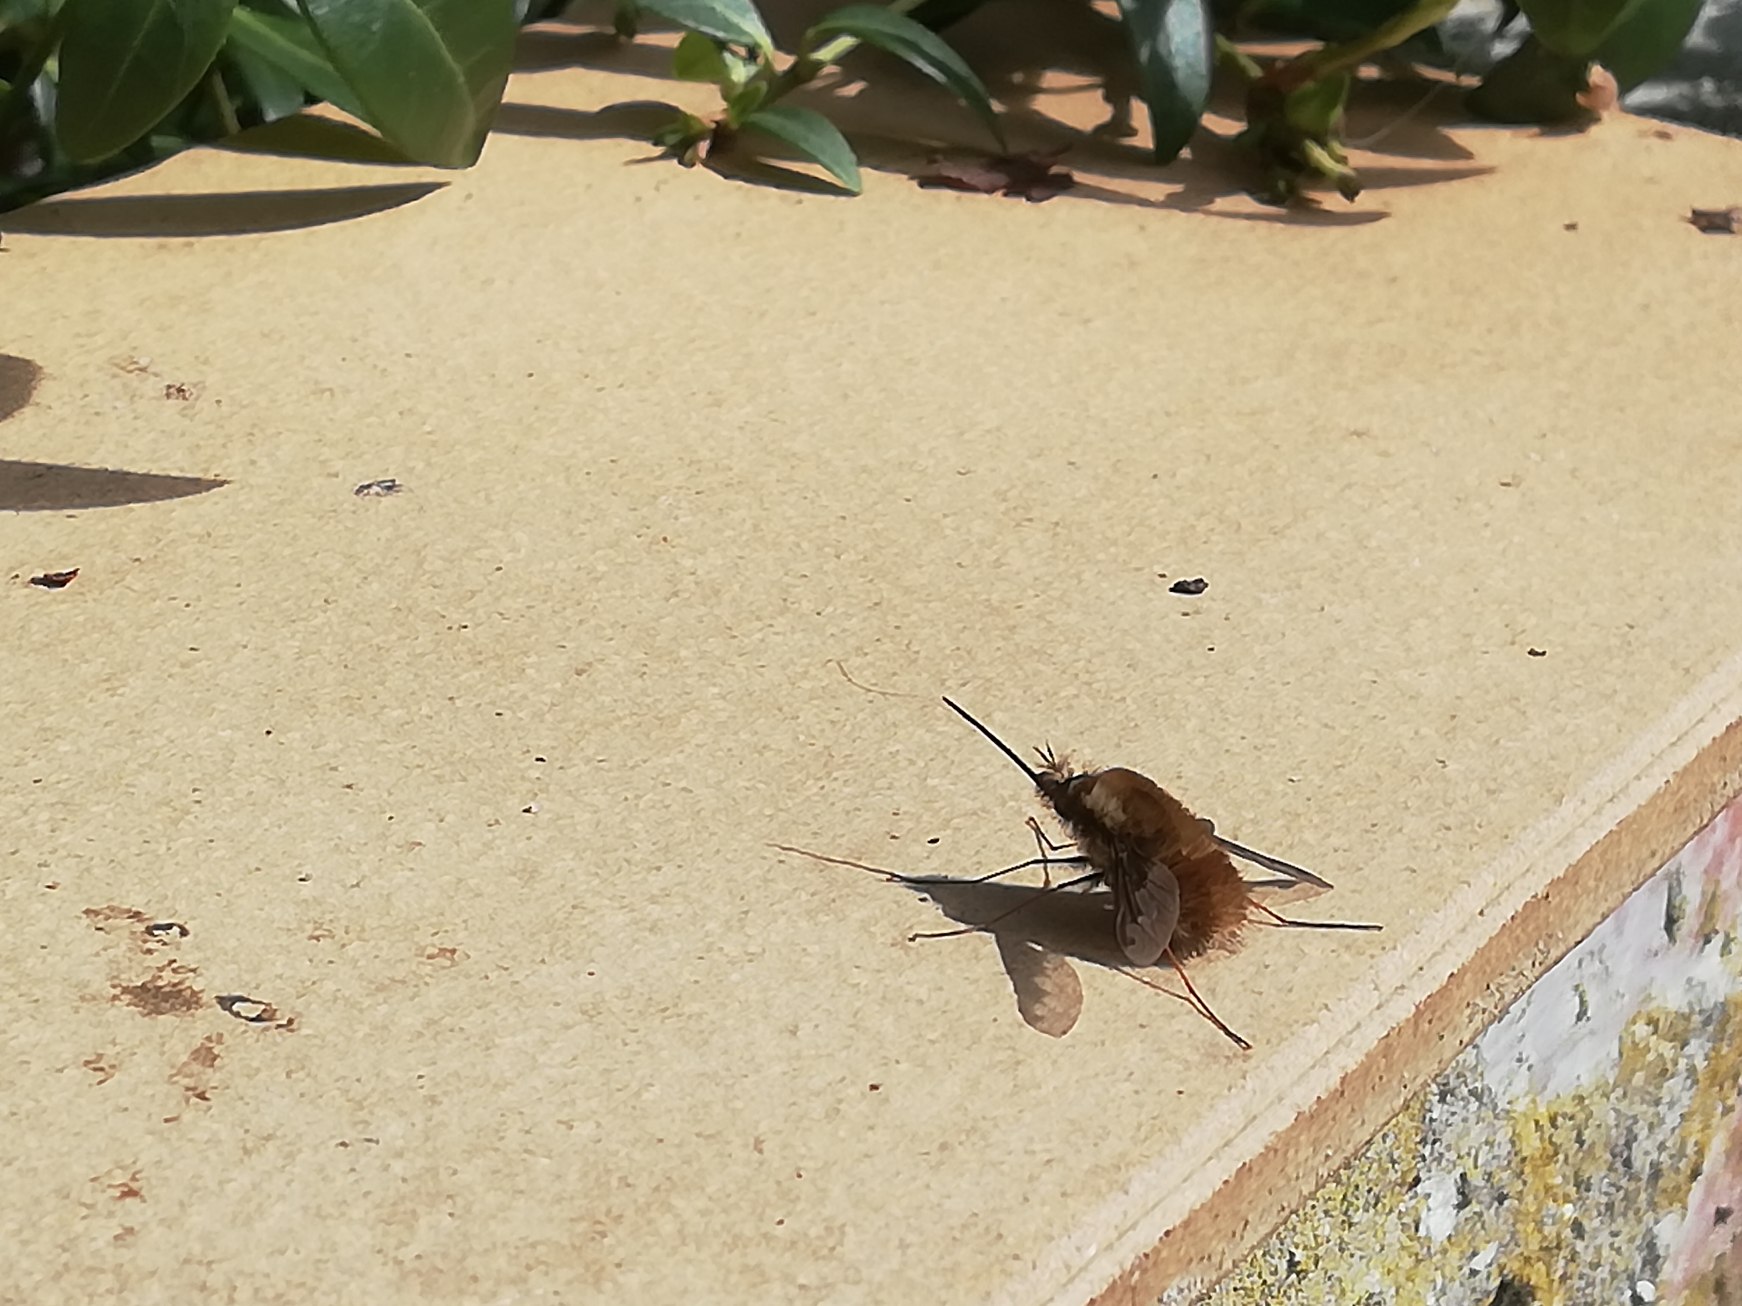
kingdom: Animalia
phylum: Arthropoda
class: Insecta
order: Diptera
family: Bombyliidae
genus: Bombylius
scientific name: Bombylius major
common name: Stor humleflue
